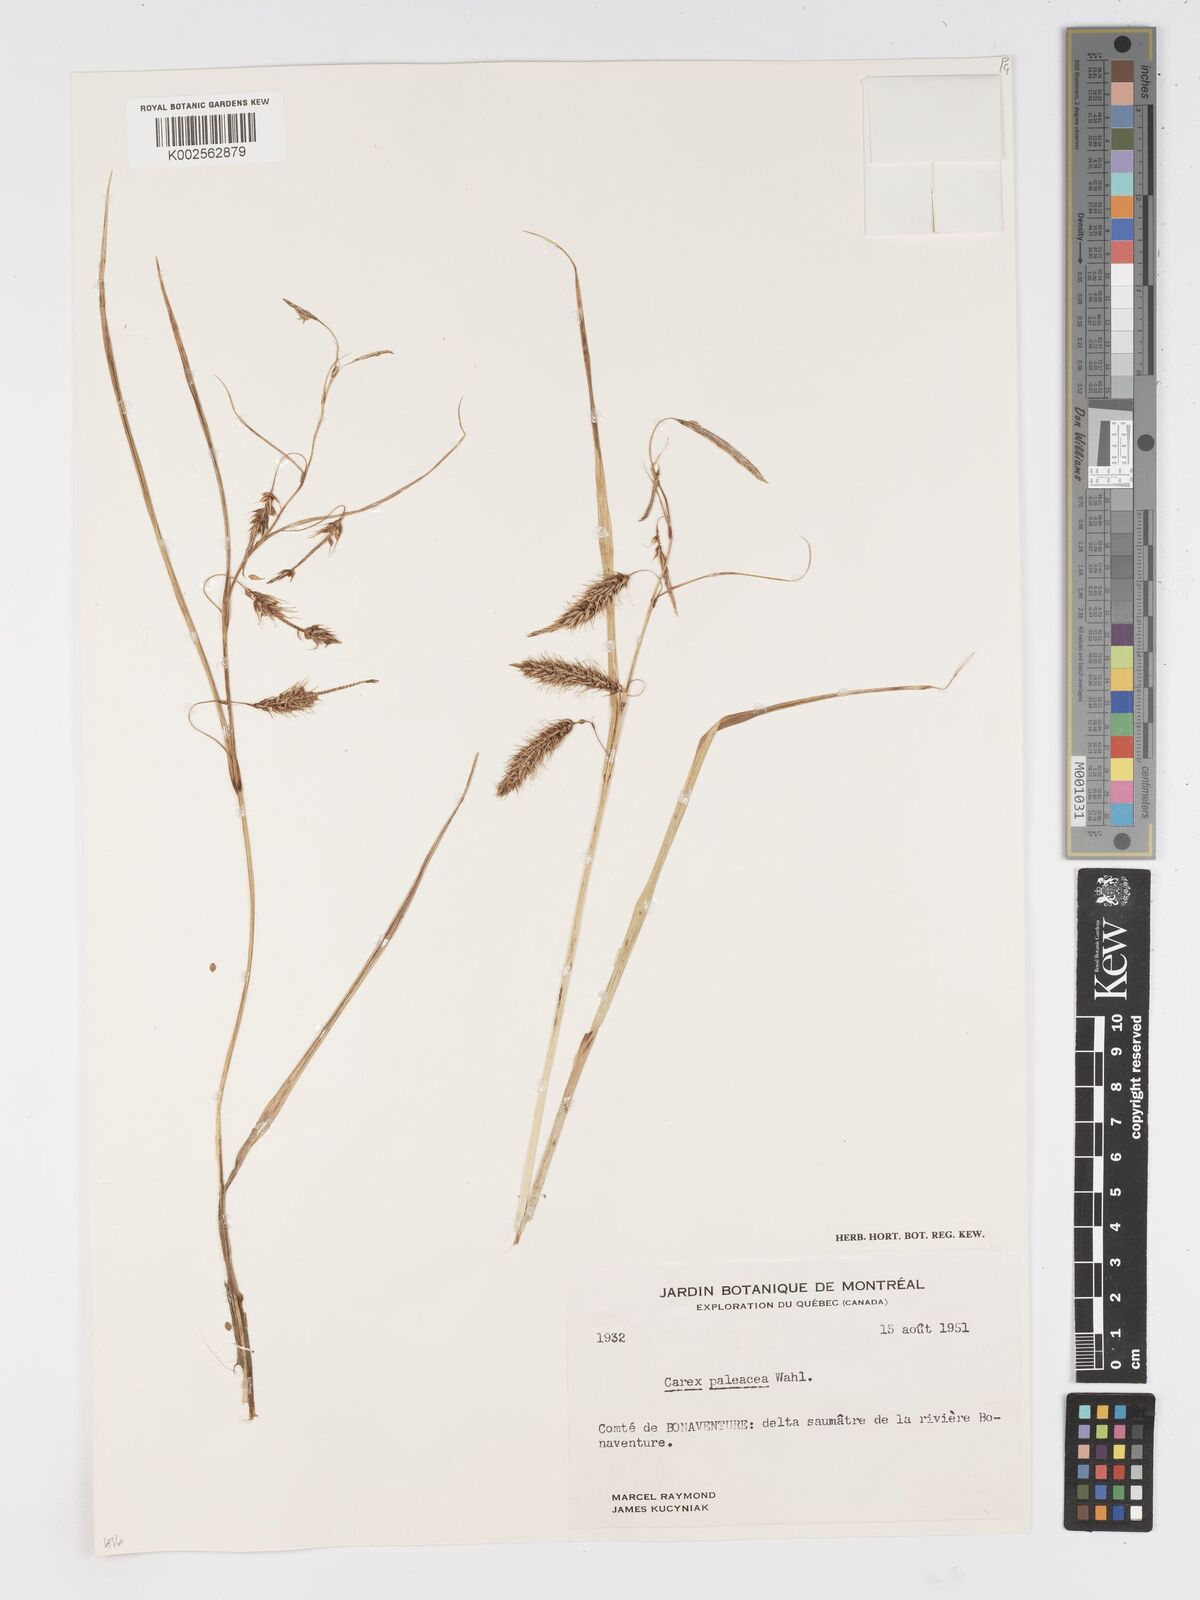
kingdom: Plantae
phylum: Tracheophyta
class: Liliopsida
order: Poales
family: Cyperaceae
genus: Carex
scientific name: Carex paleacea
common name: Chaffy sedge
